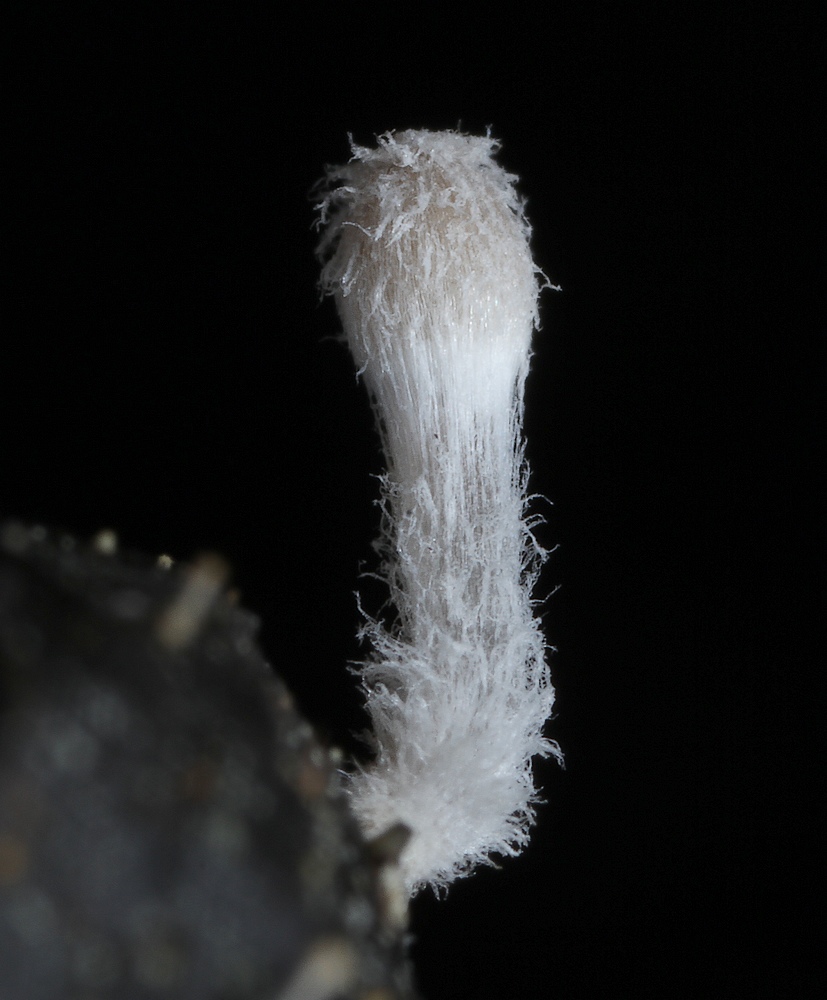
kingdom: Fungi
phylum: Basidiomycota
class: Agaricomycetes
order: Agaricales
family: Psathyrellaceae
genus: Coprinopsis
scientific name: Coprinopsis stercorea
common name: pjusket blækhat
